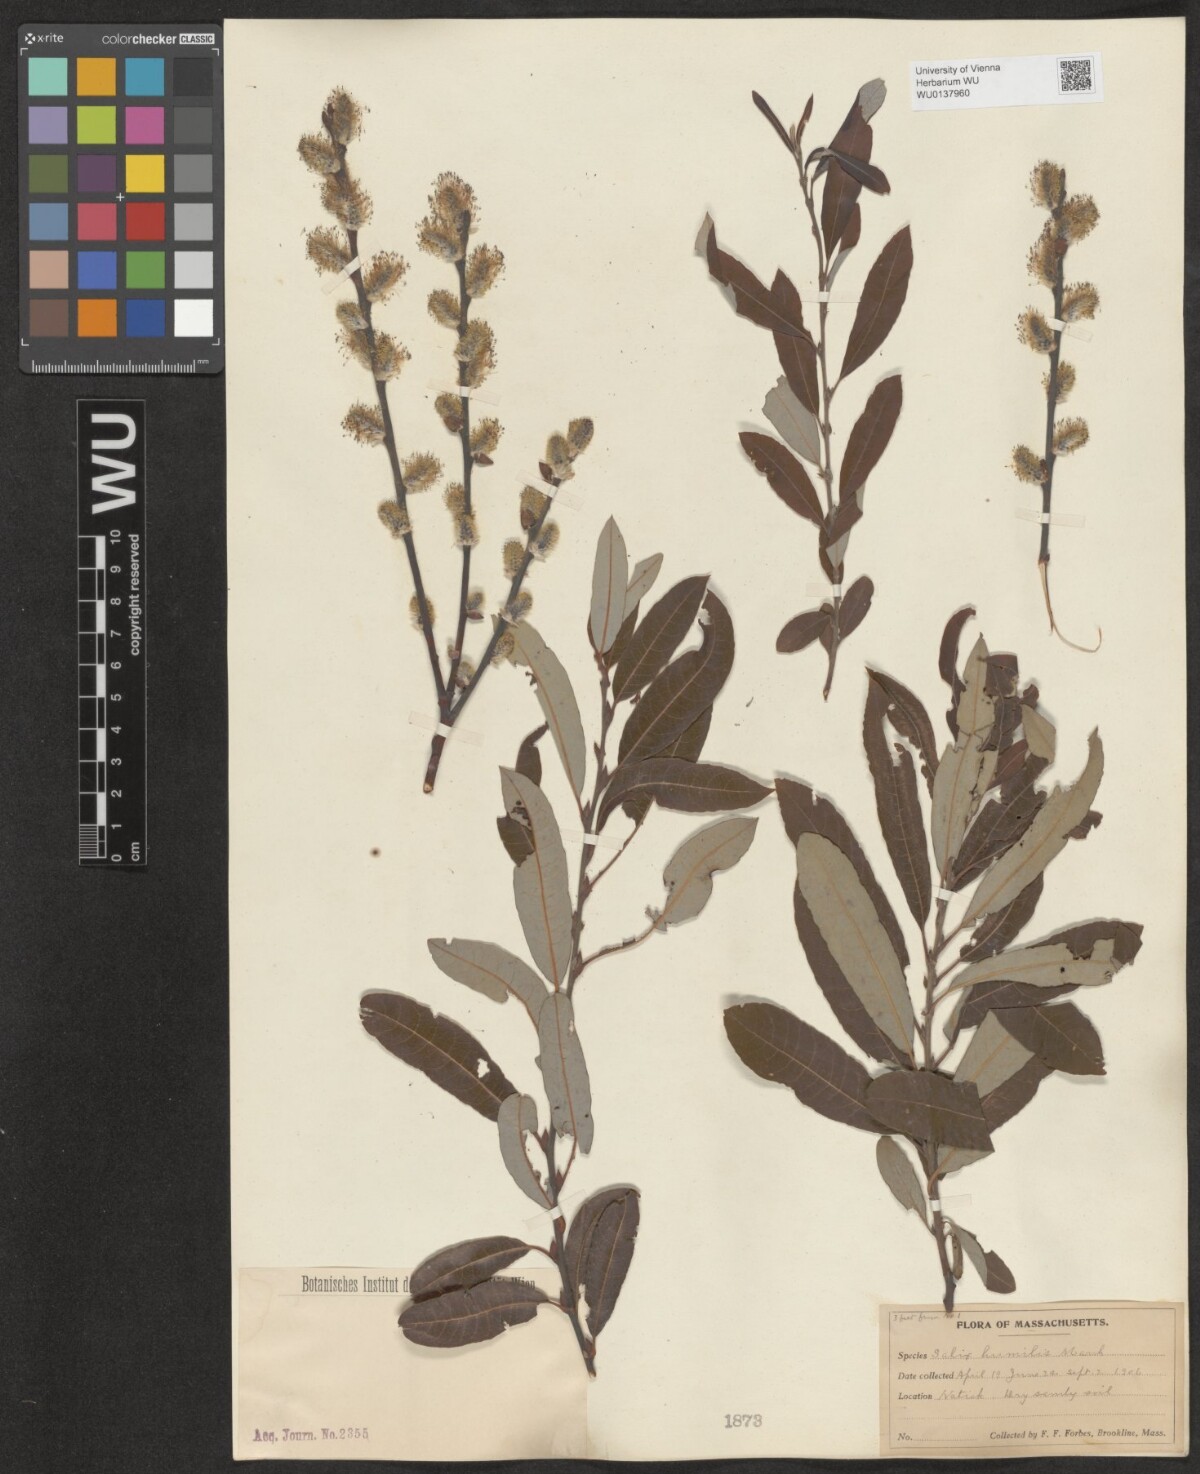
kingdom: Plantae
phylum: Tracheophyta
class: Magnoliopsida
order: Malpighiales
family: Salicaceae
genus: Salix
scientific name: Salix humilis
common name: Prairie willow
